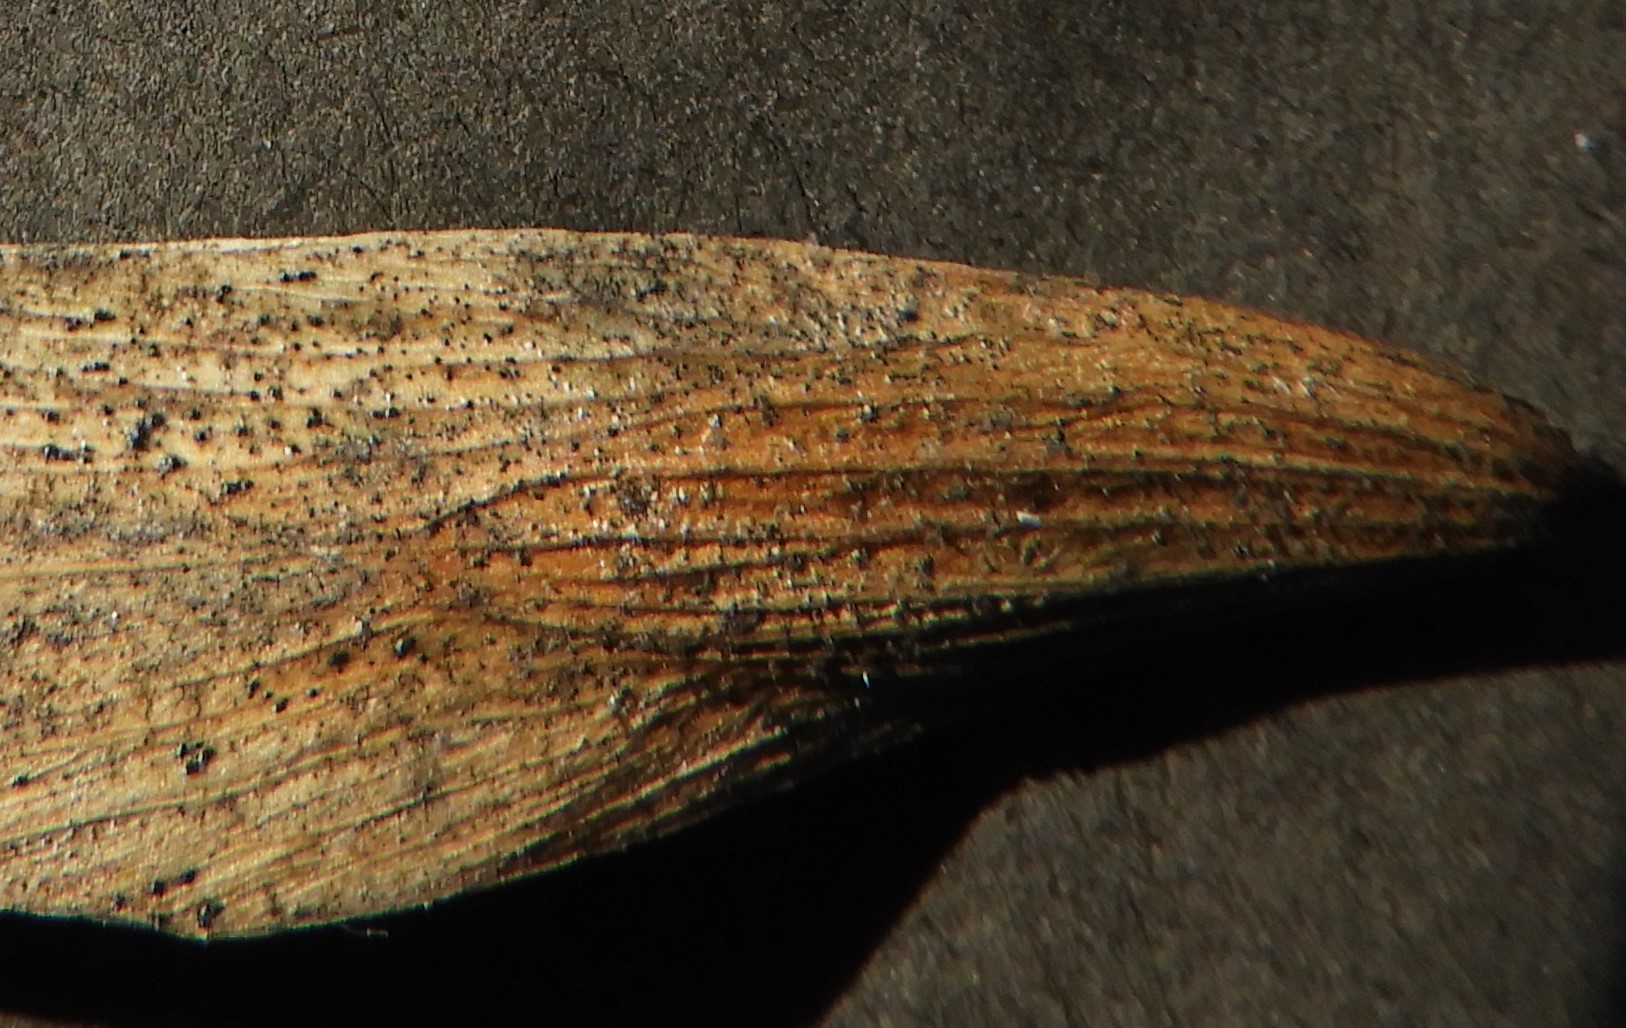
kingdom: Fungi
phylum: Ascomycota
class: Dothideomycetes
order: Pleosporales
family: Pleosporaceae
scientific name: Pleosporaceae
